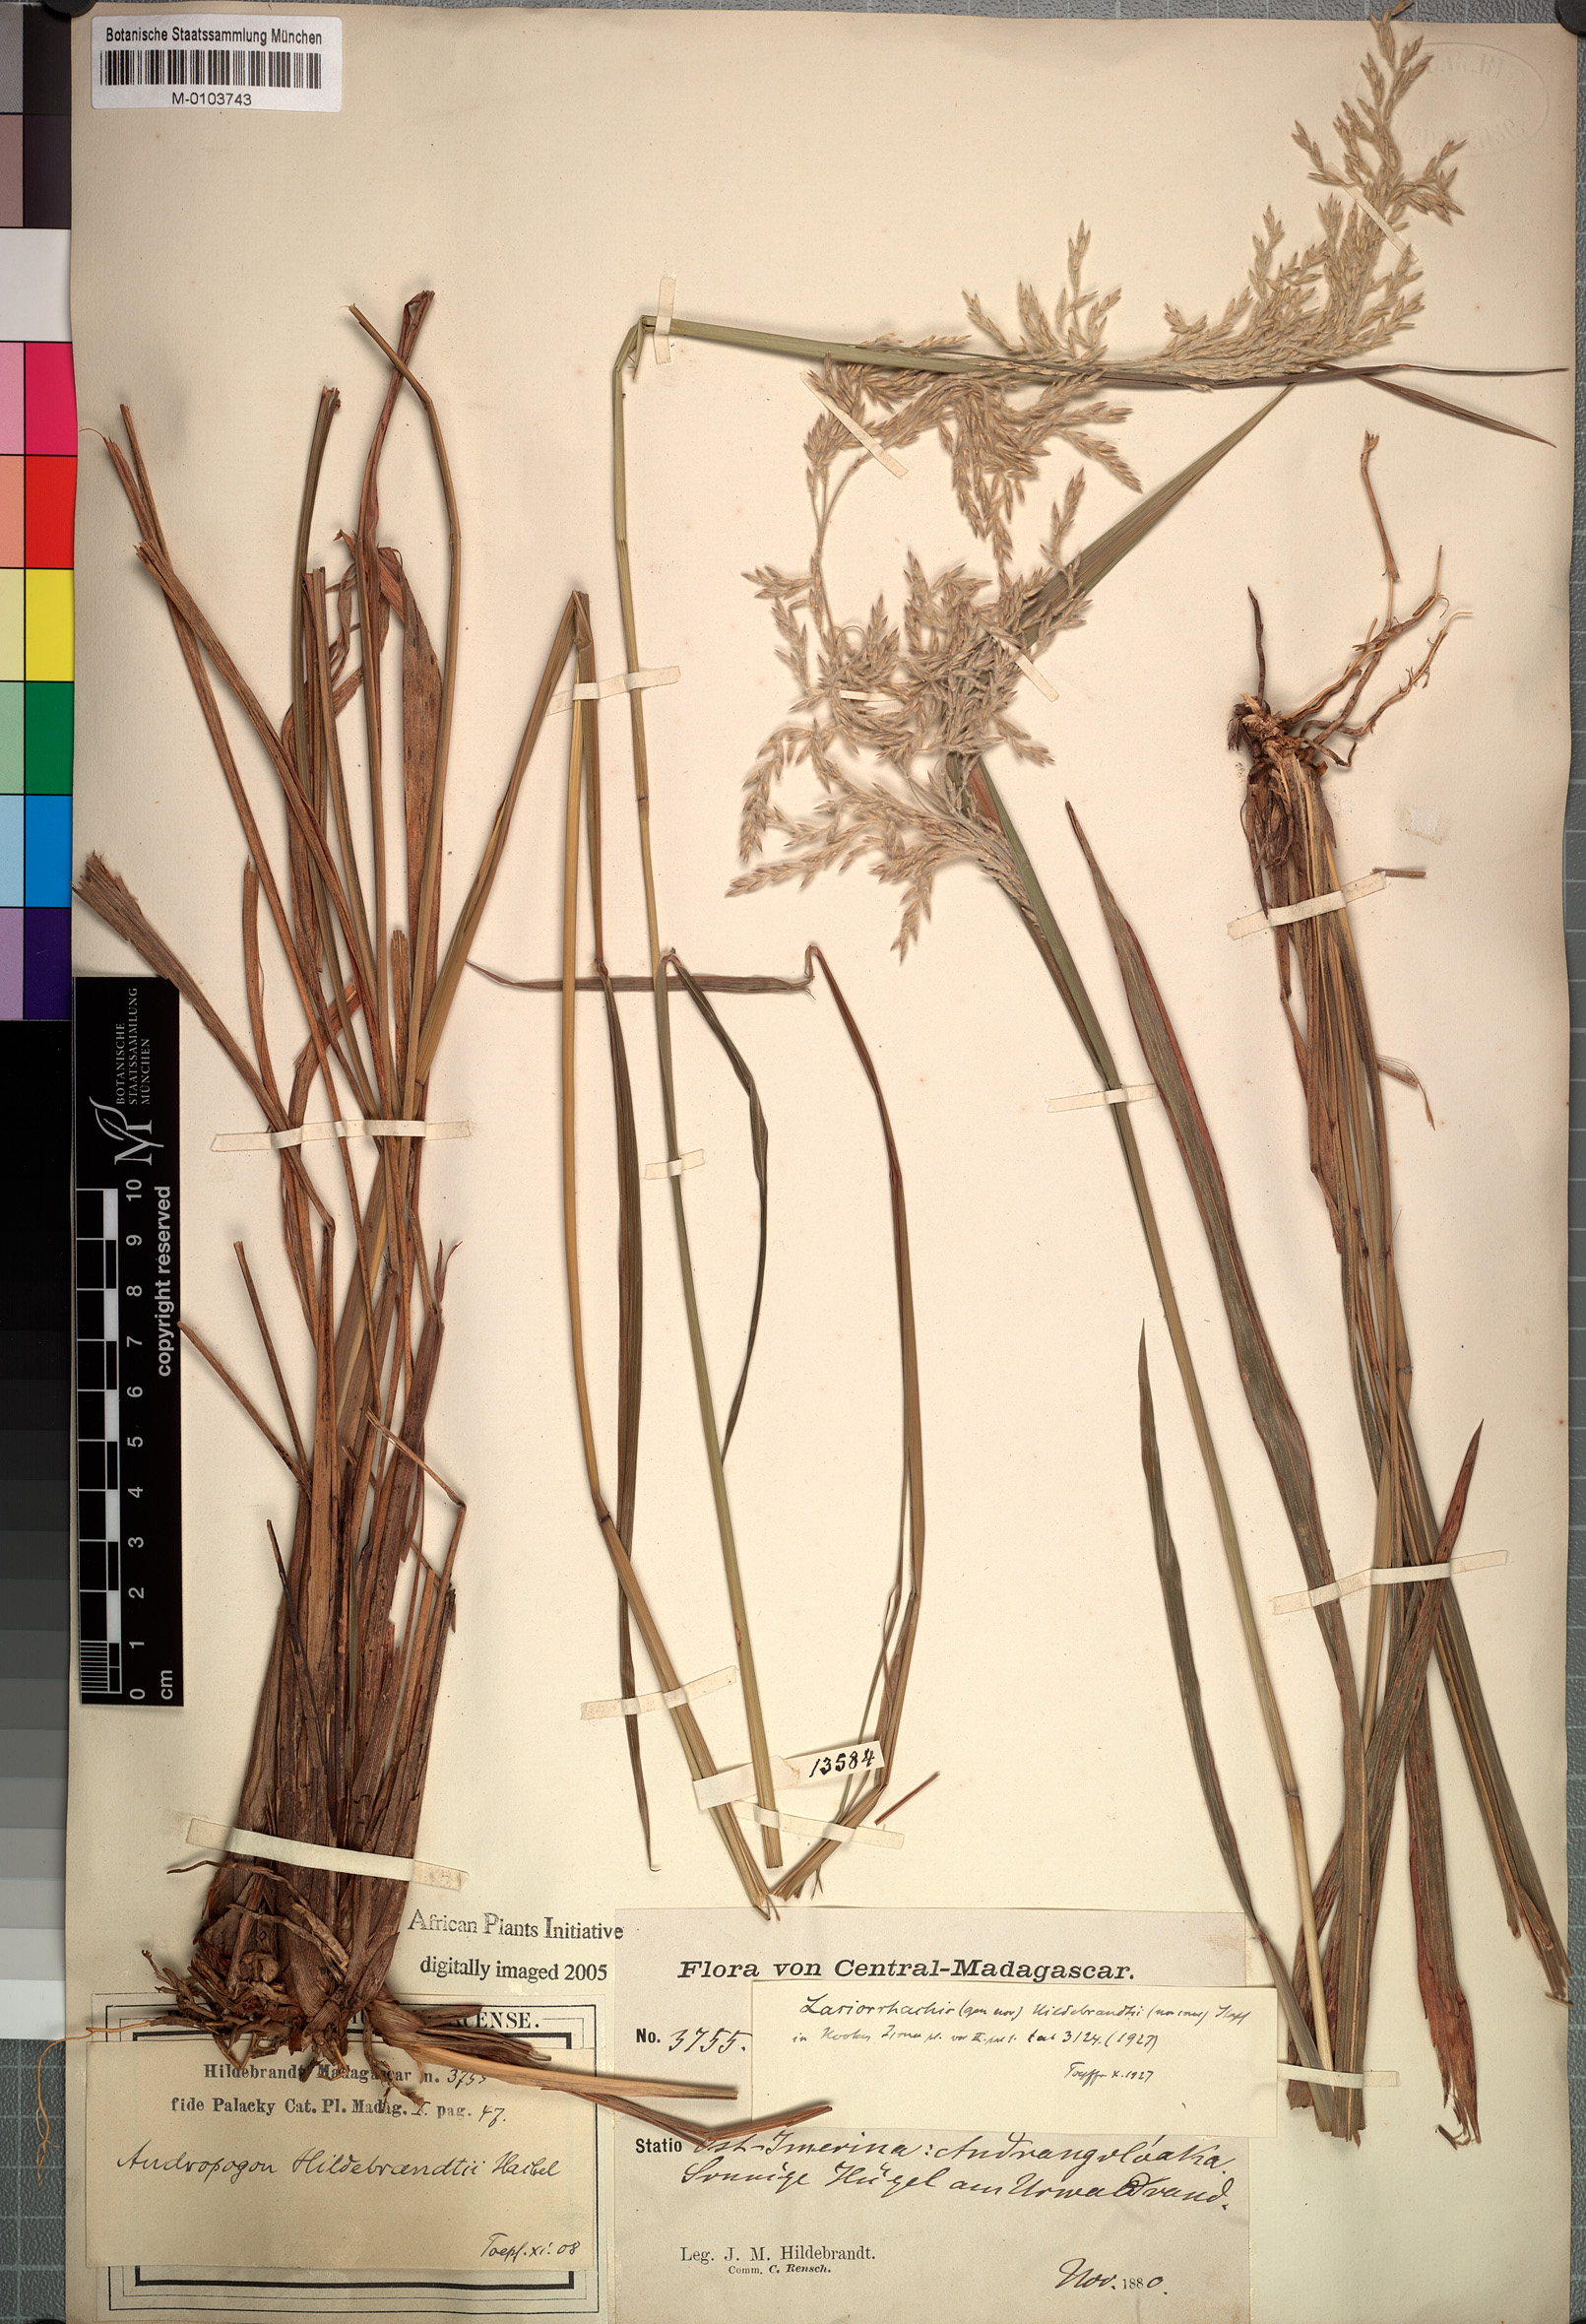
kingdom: Plantae
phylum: Tracheophyta
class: Liliopsida
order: Poales
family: Poaceae
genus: Lasiorhachis
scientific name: Lasiorhachis hildebrandtii
